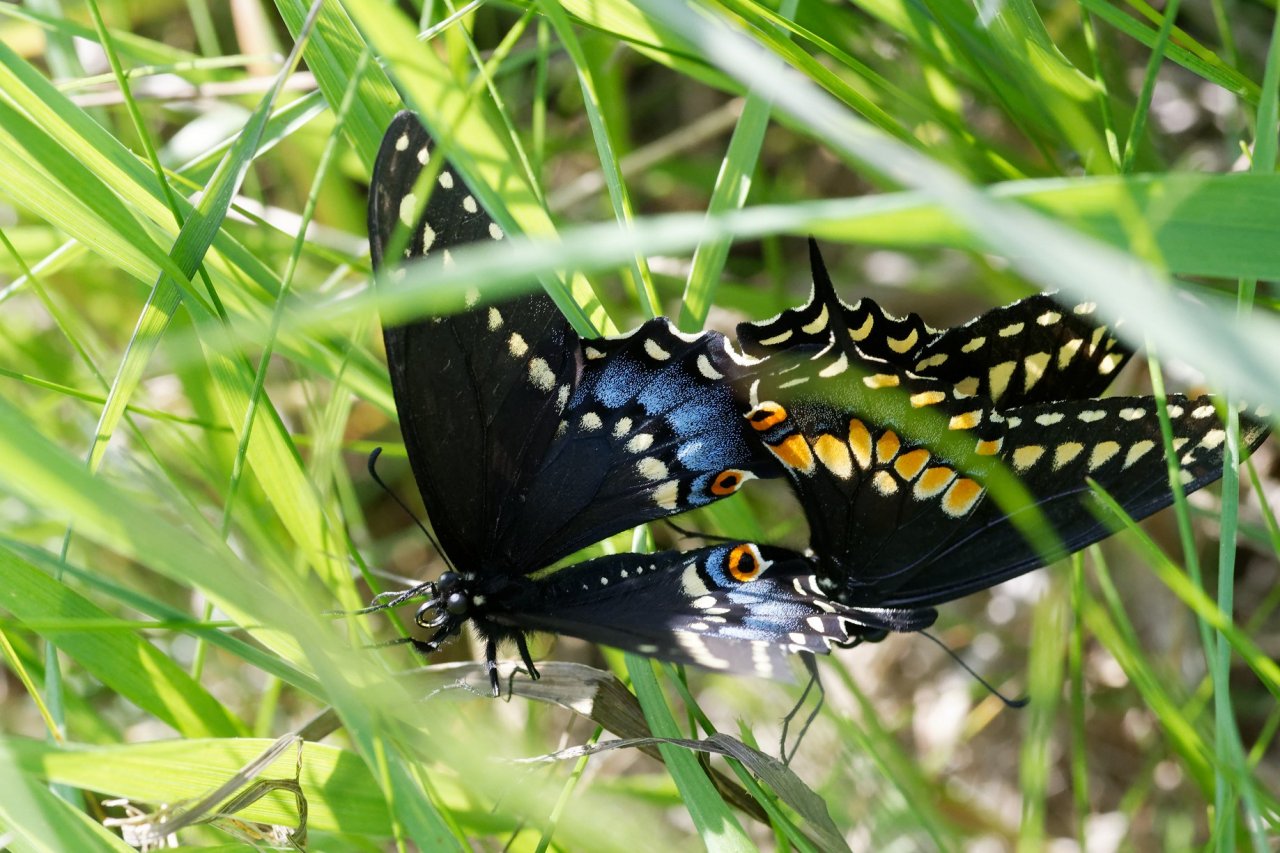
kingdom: Animalia
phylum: Arthropoda
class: Insecta
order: Lepidoptera
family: Papilionidae
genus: Papilio
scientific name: Papilio polyxenes
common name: Black Swallowtail
